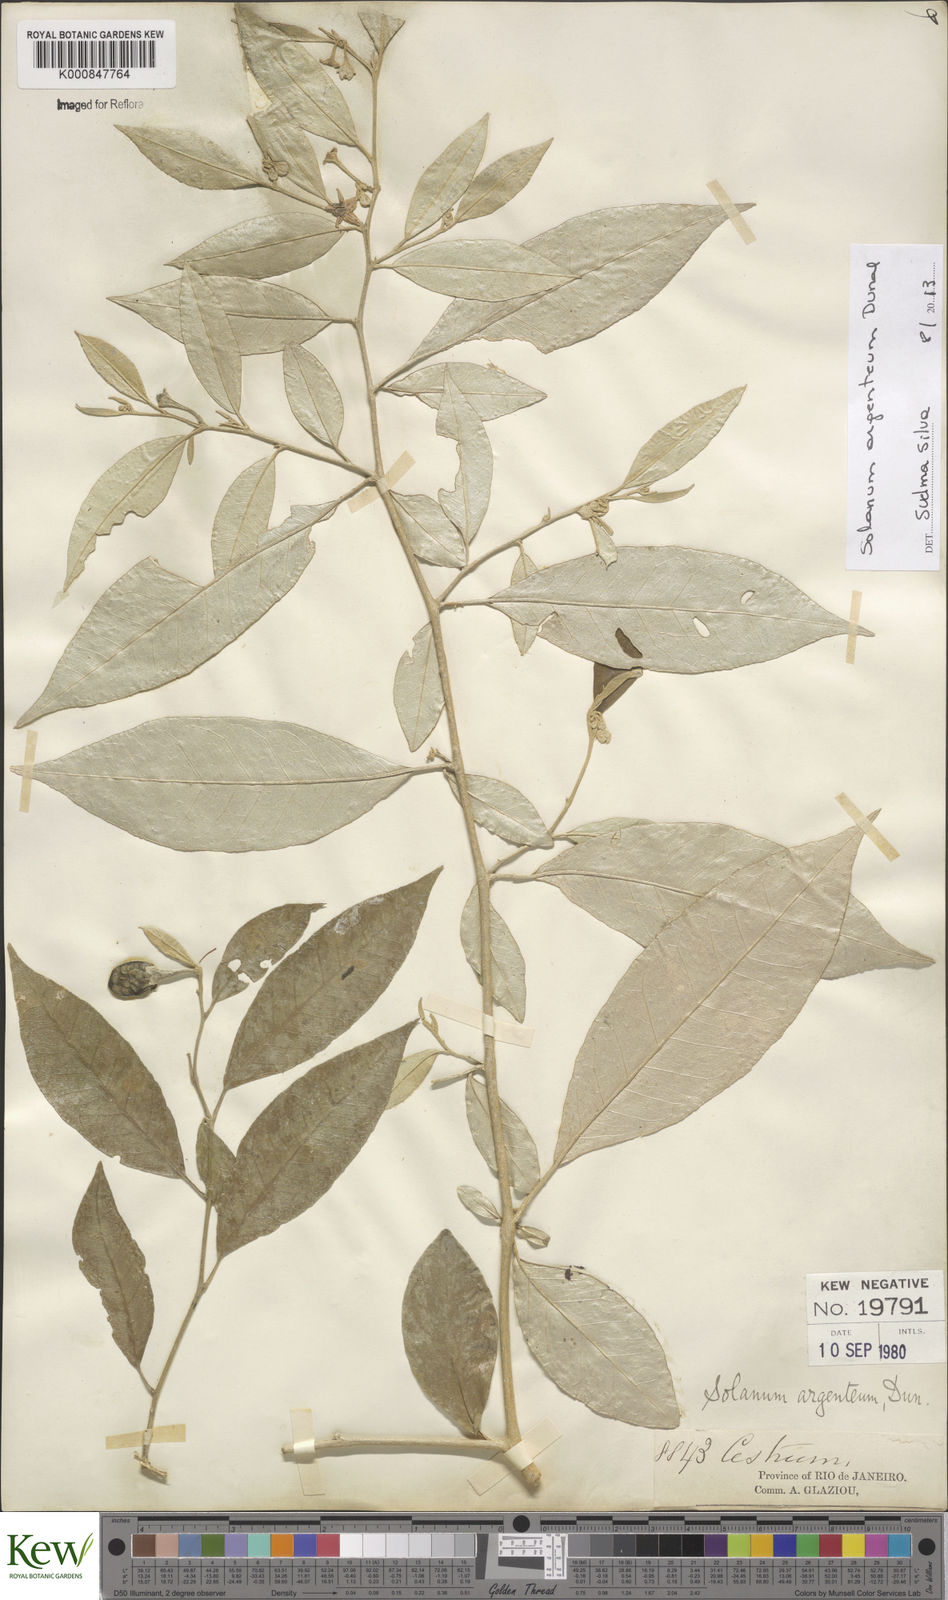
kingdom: Plantae
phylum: Tracheophyta
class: Magnoliopsida
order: Solanales
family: Solanaceae
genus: Solanum
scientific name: Solanum swartzianum
